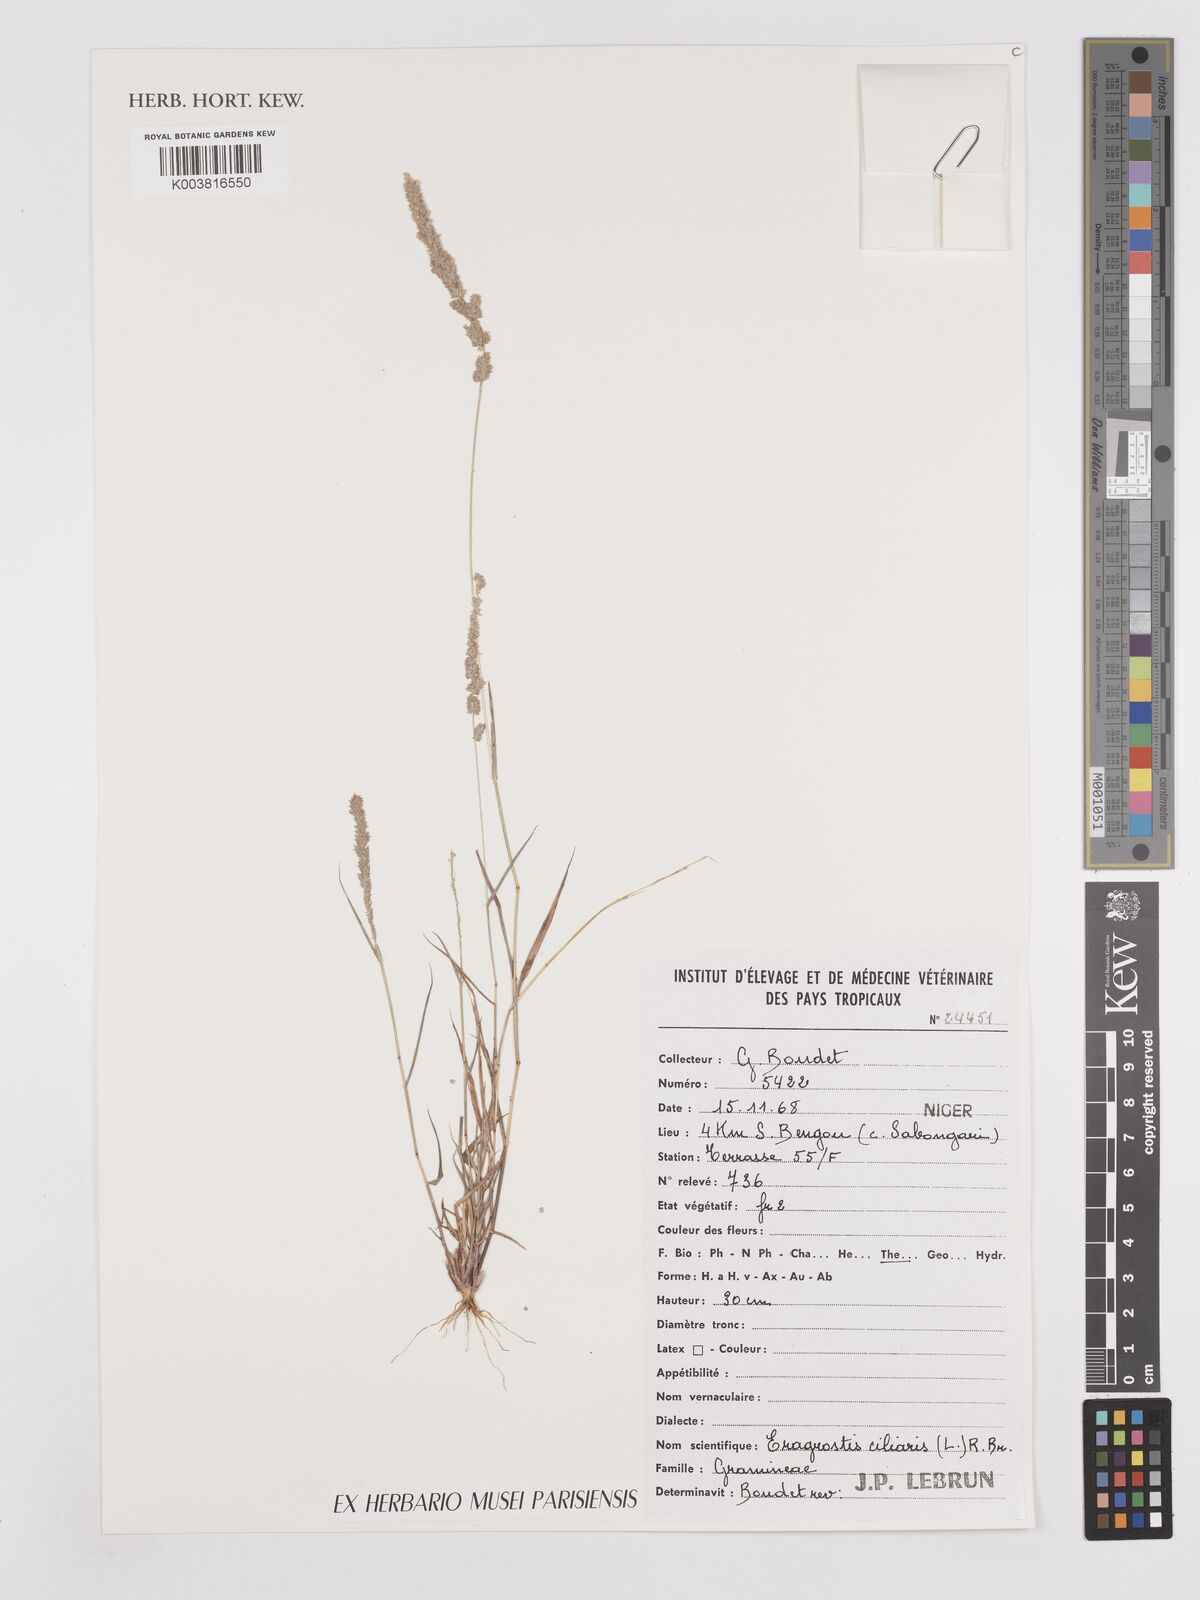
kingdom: Plantae
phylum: Tracheophyta
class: Liliopsida
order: Poales
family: Poaceae
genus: Eragrostis
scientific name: Eragrostis ciliaris
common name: Gophertail lovegrass
